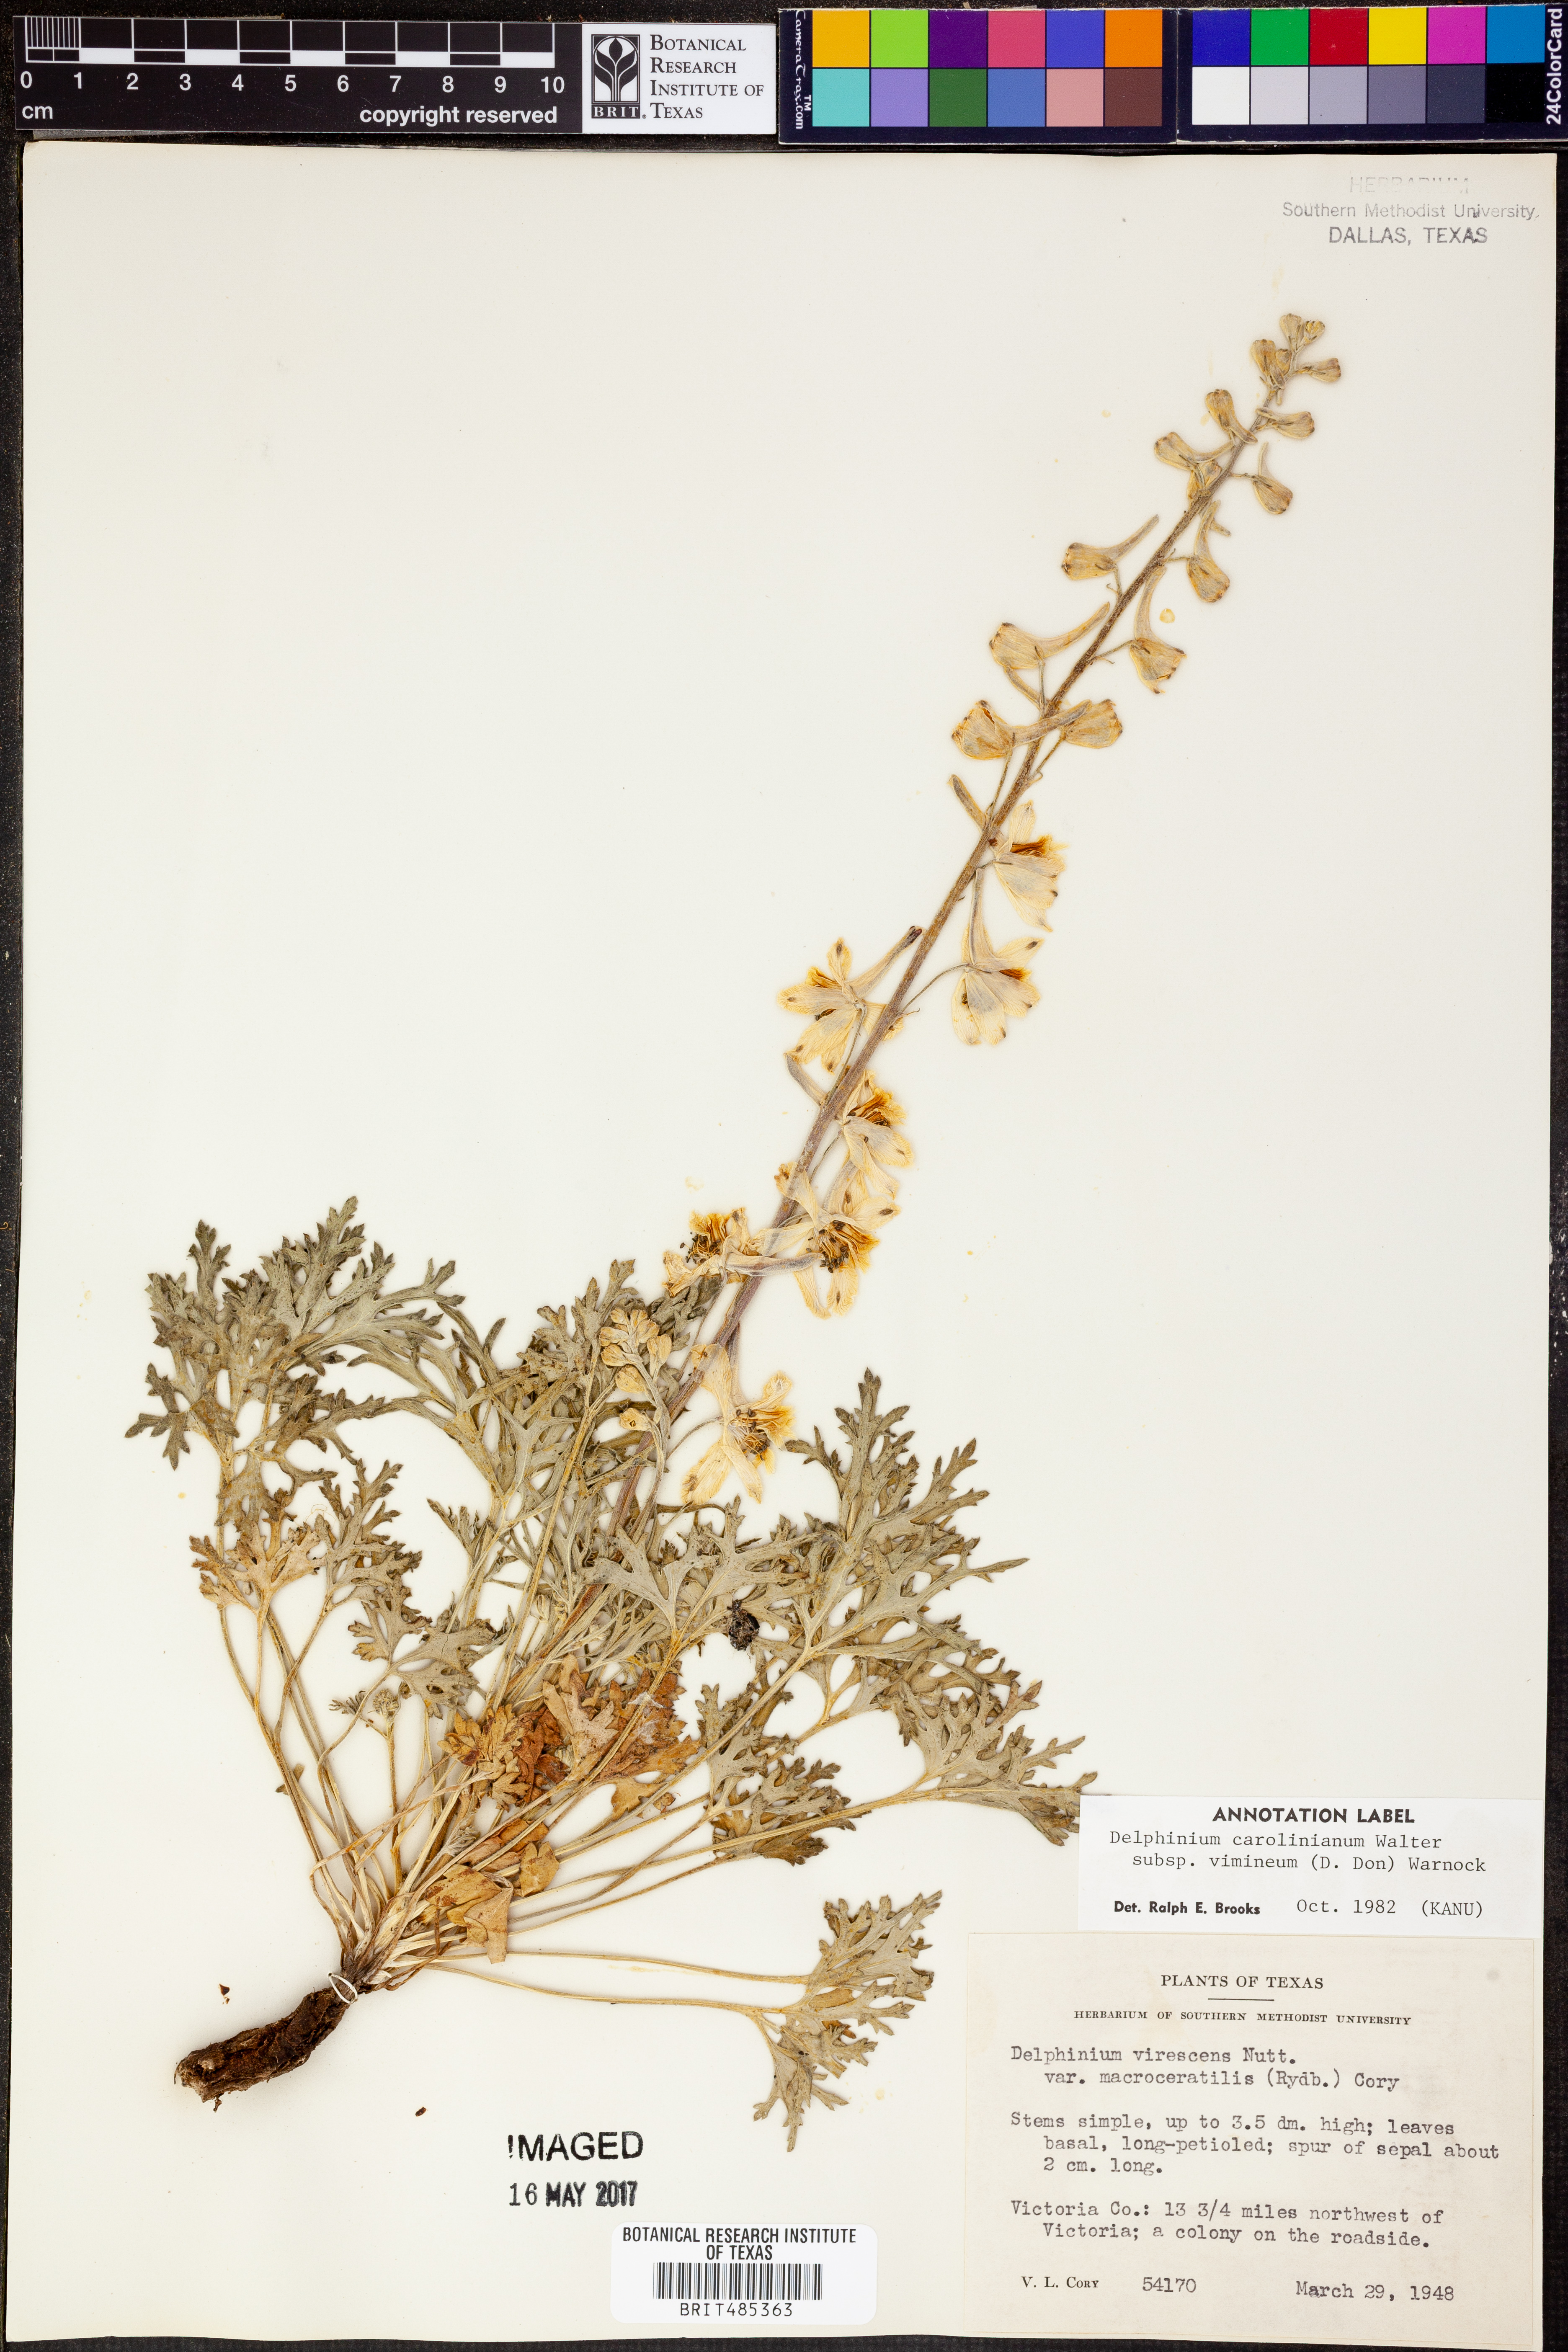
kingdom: Plantae
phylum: Tracheophyta
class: Magnoliopsida
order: Ranunculales
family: Ranunculaceae
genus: Delphinium
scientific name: Delphinium carolinianum
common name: Carolina larkspur
